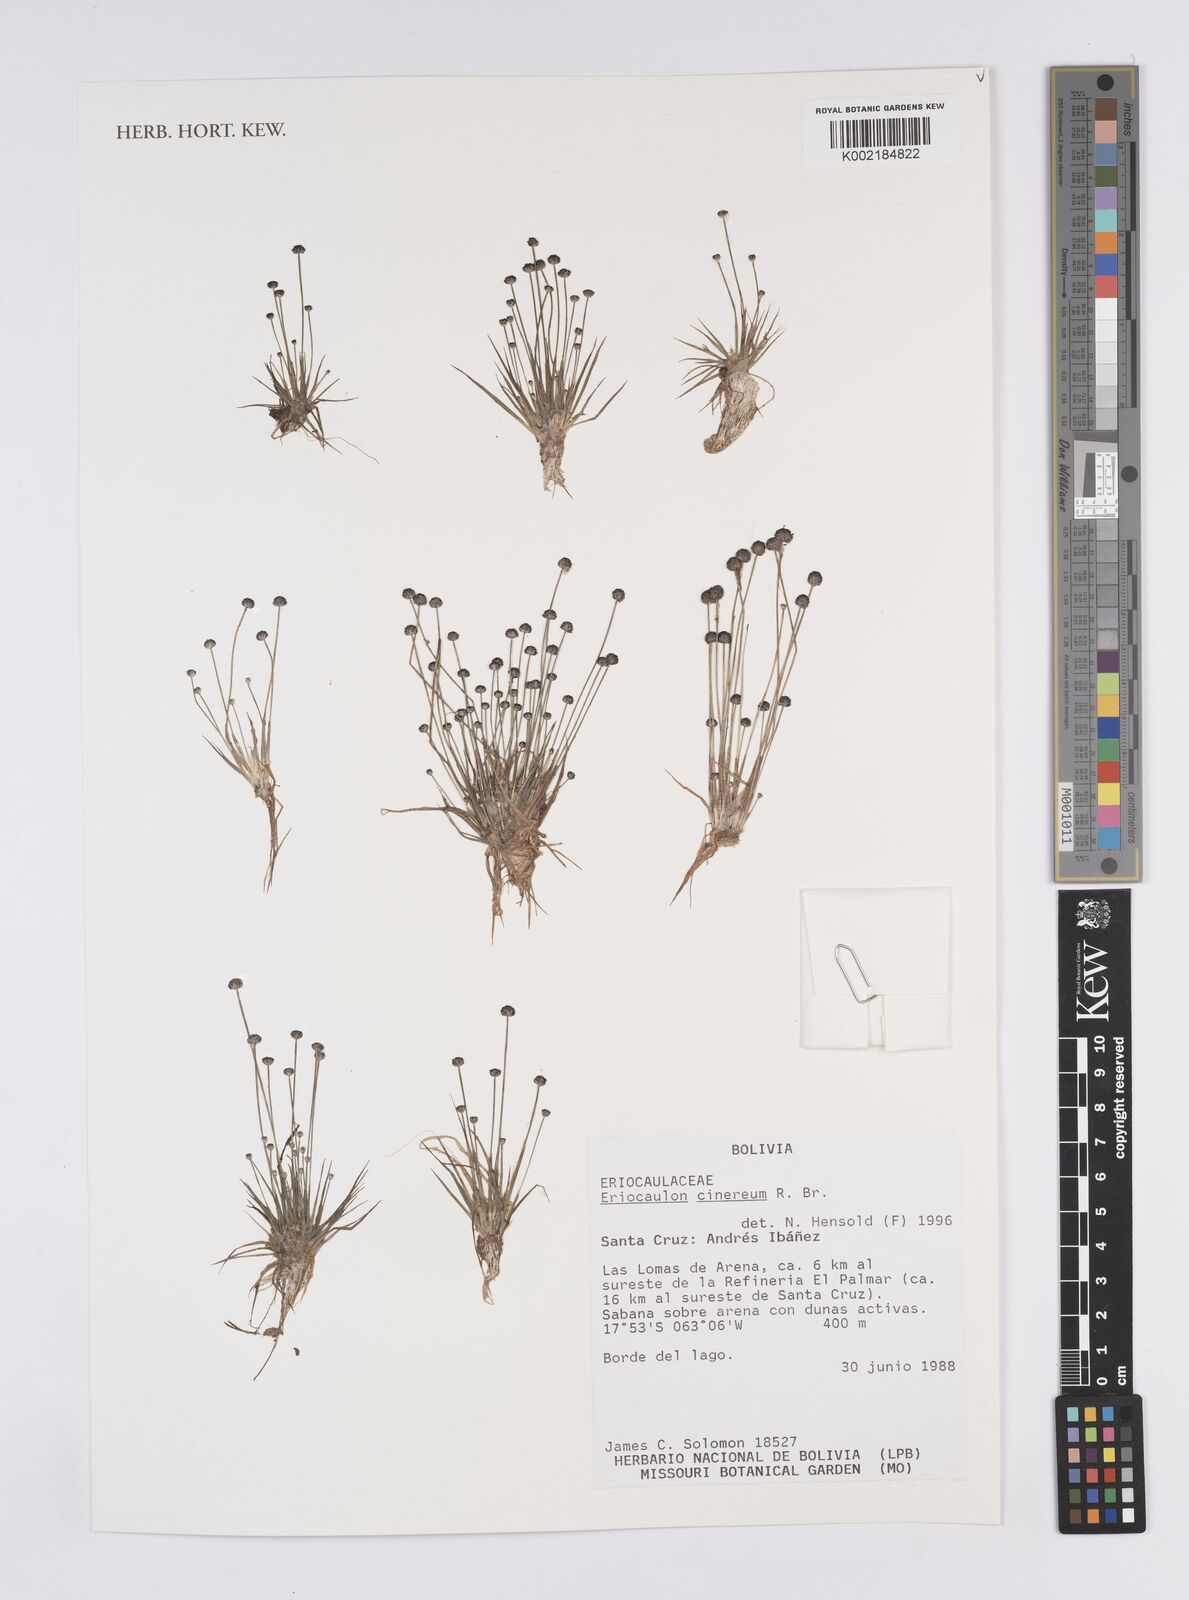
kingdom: Plantae
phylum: Tracheophyta
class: Liliopsida
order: Poales
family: Eriocaulaceae
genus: Eriocaulon
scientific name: Eriocaulon cinereum
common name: Ashy pipewort
